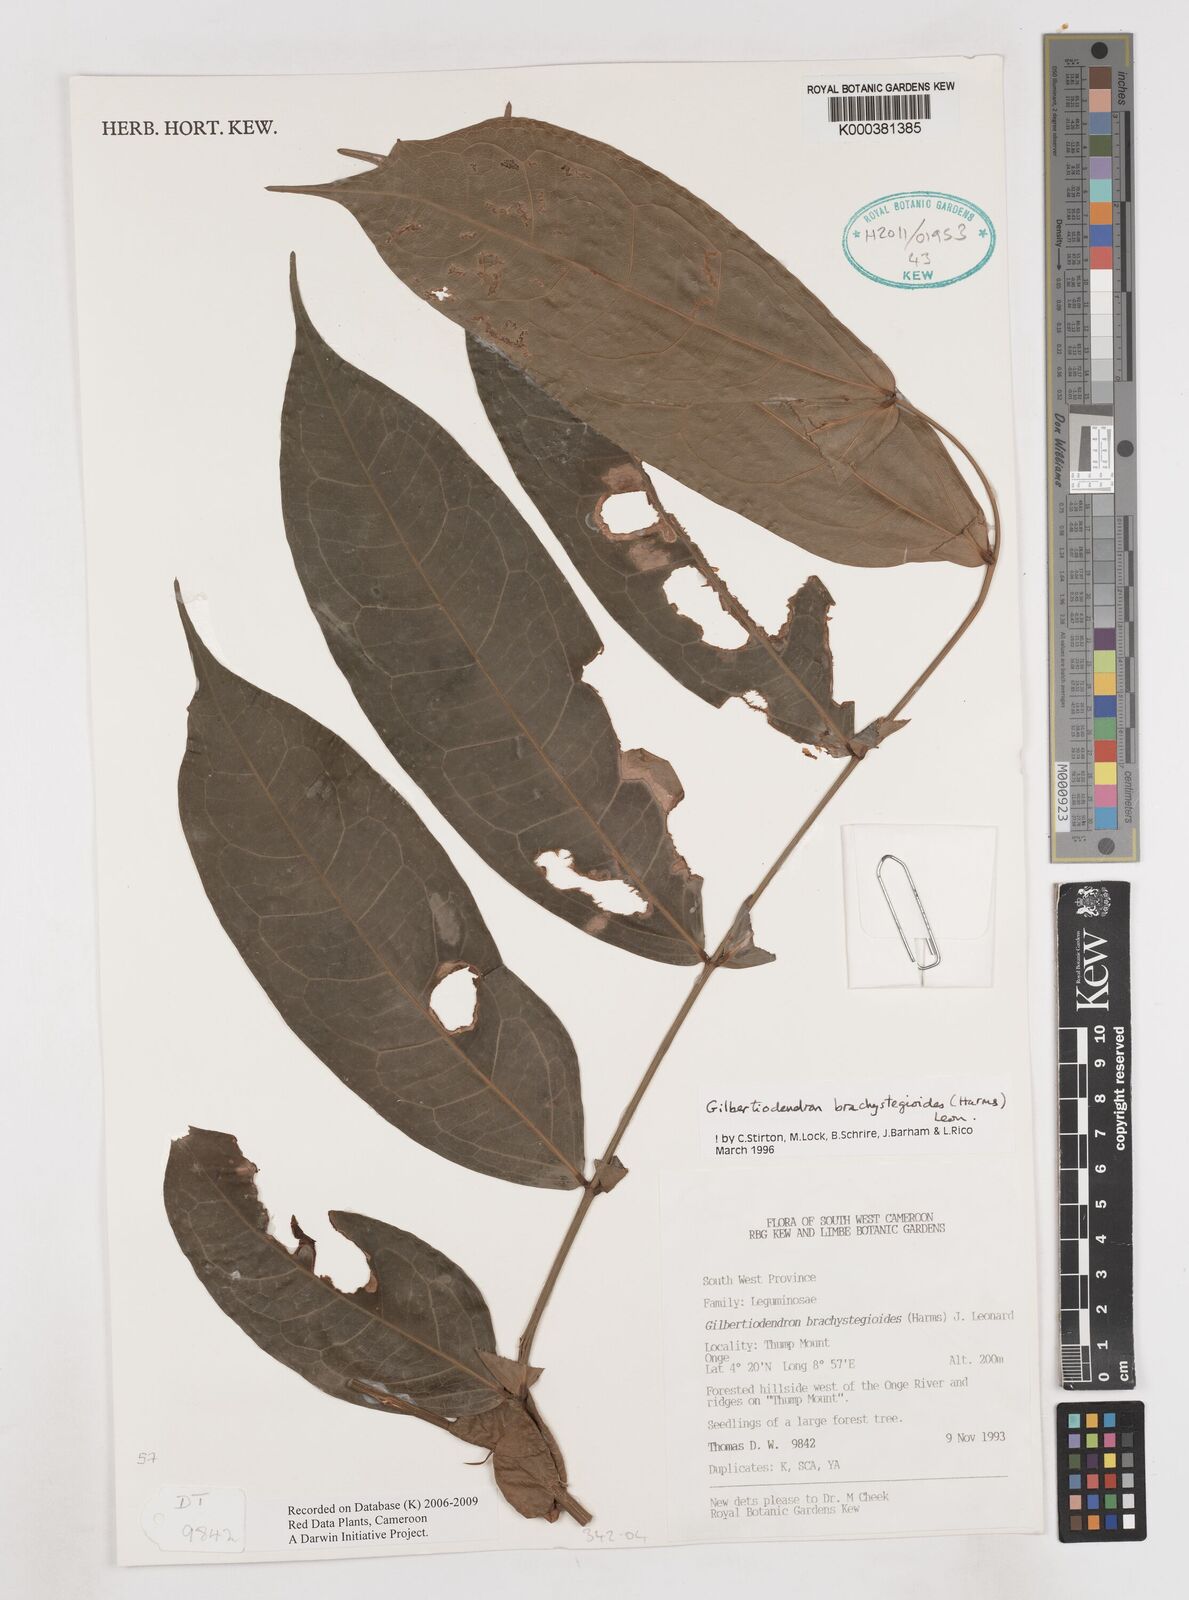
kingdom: Plantae
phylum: Tracheophyta
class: Magnoliopsida
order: Fabales
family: Fabaceae
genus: Gilbertiodendron
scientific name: Gilbertiodendron brachystegioides
